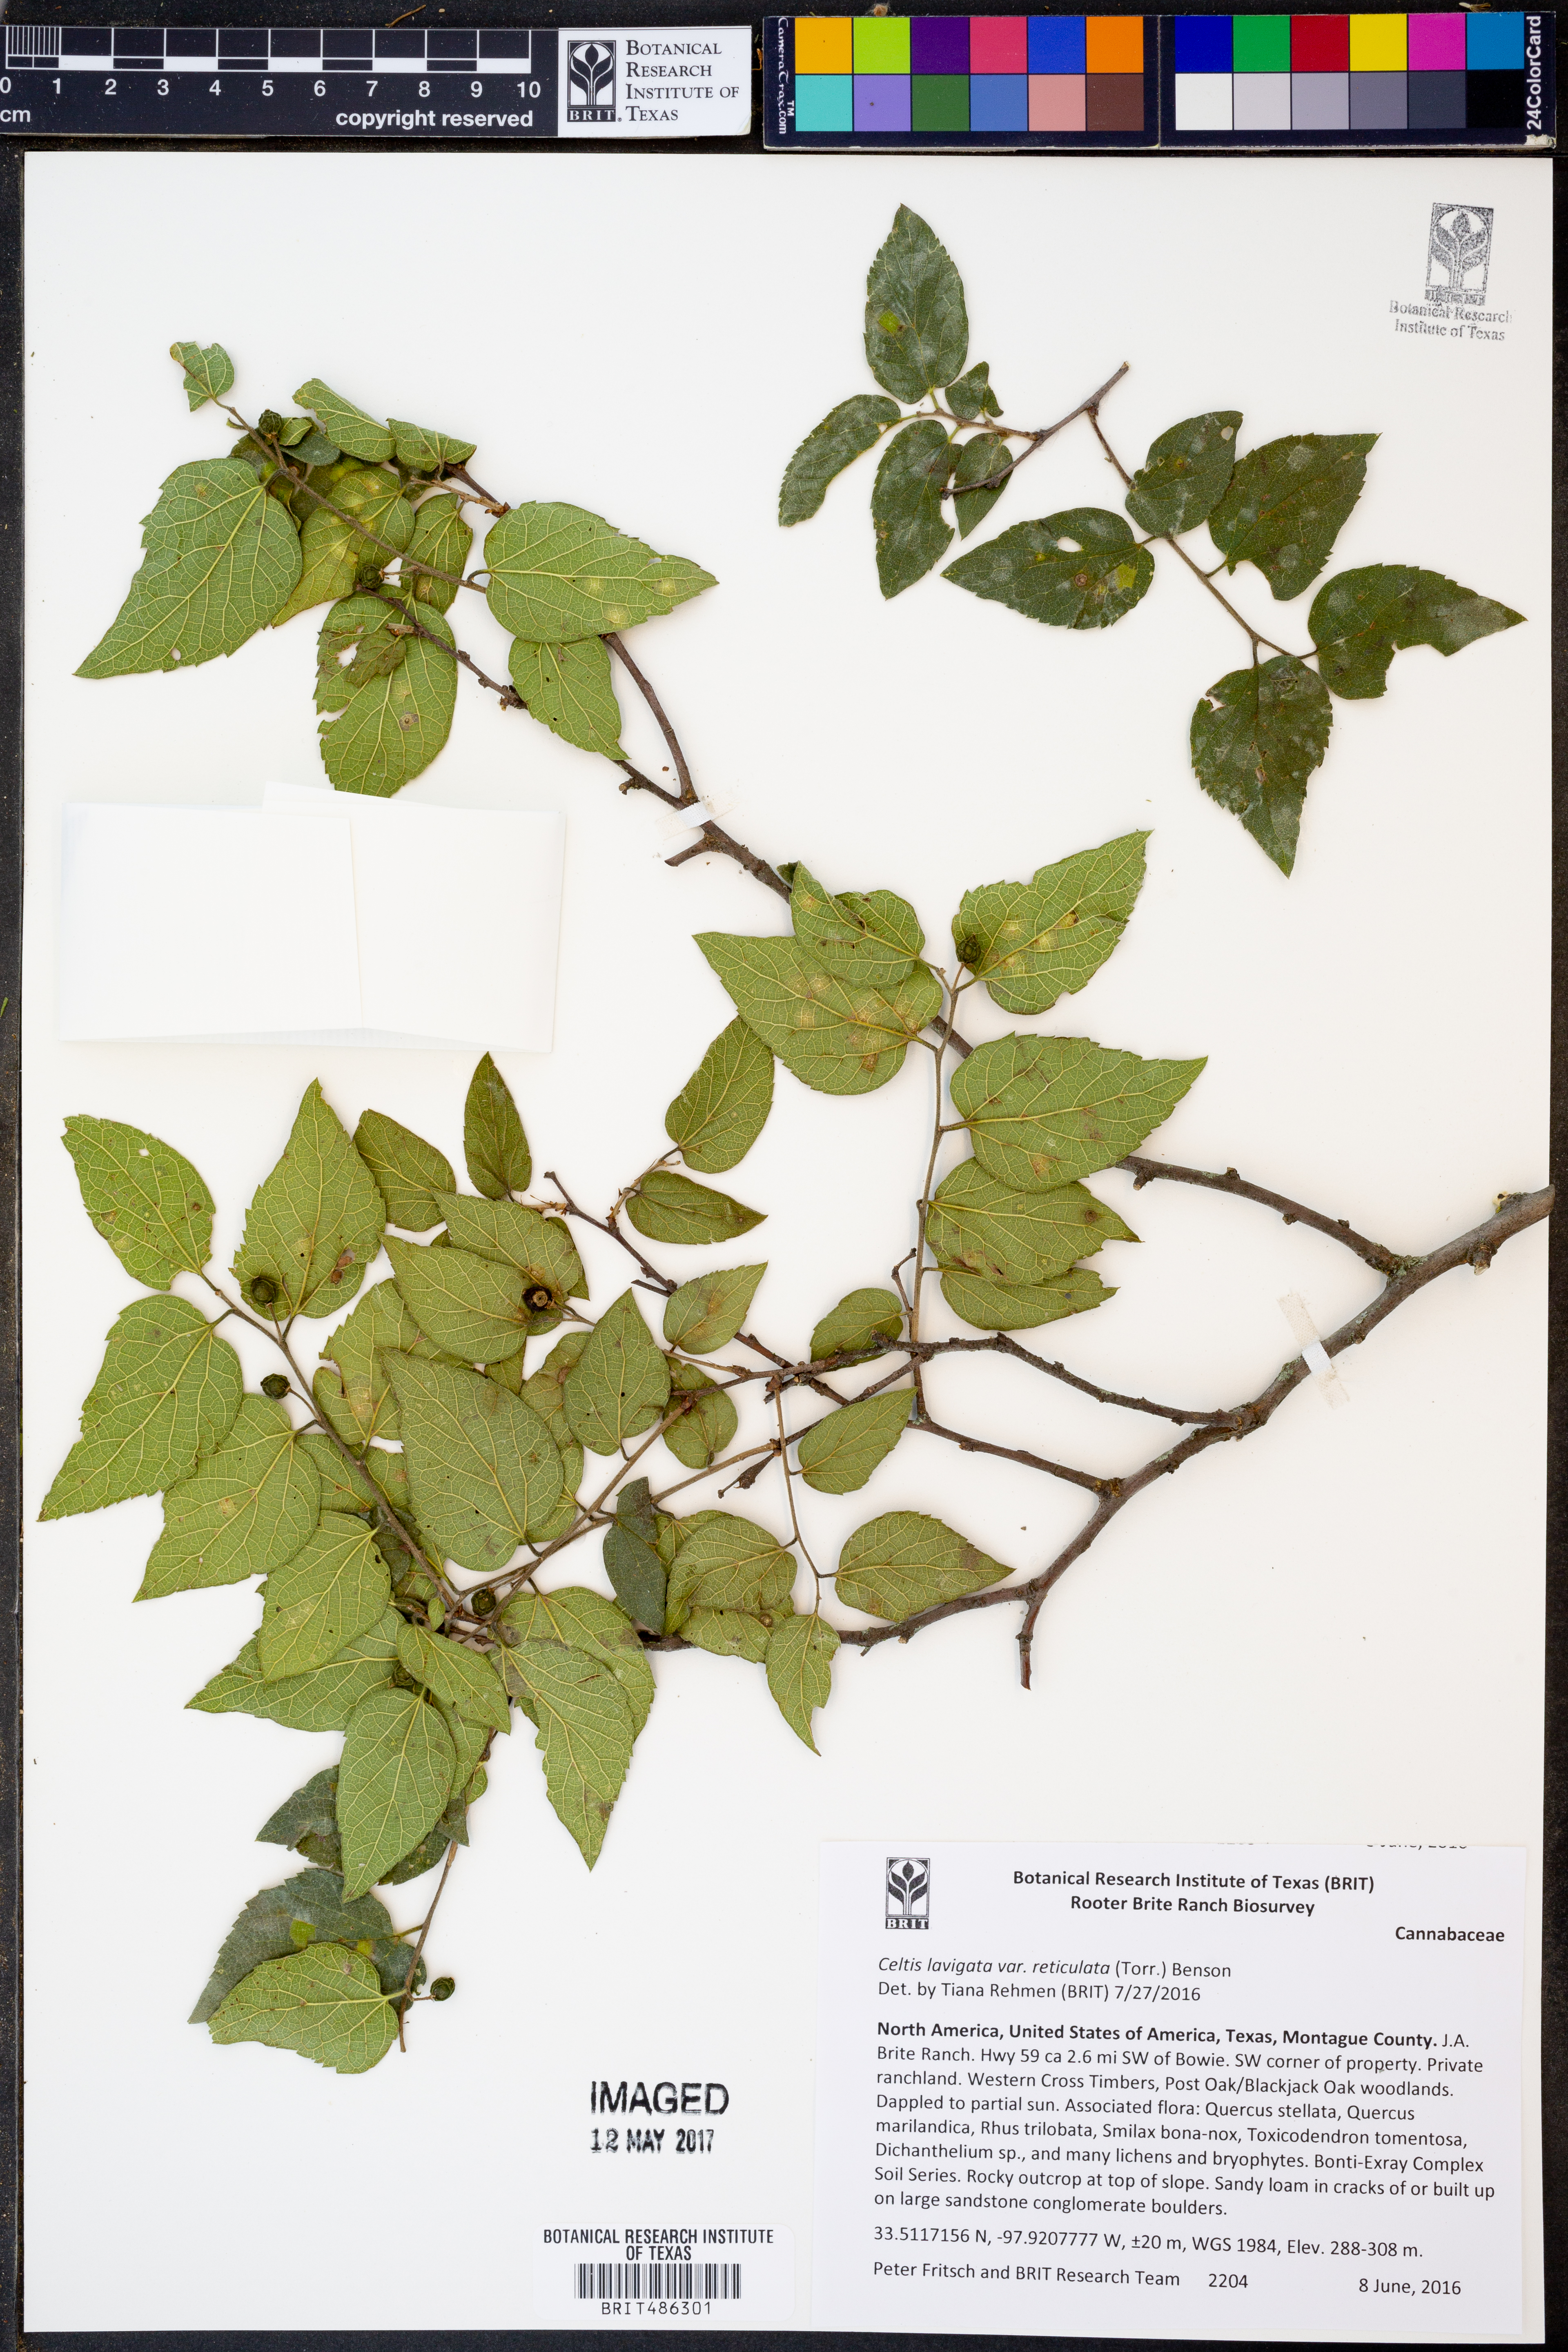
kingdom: Plantae
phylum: Tracheophyta
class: Magnoliopsida
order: Rosales
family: Cannabaceae
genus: Celtis
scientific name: Celtis reticulata
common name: Netleaf hackberry
